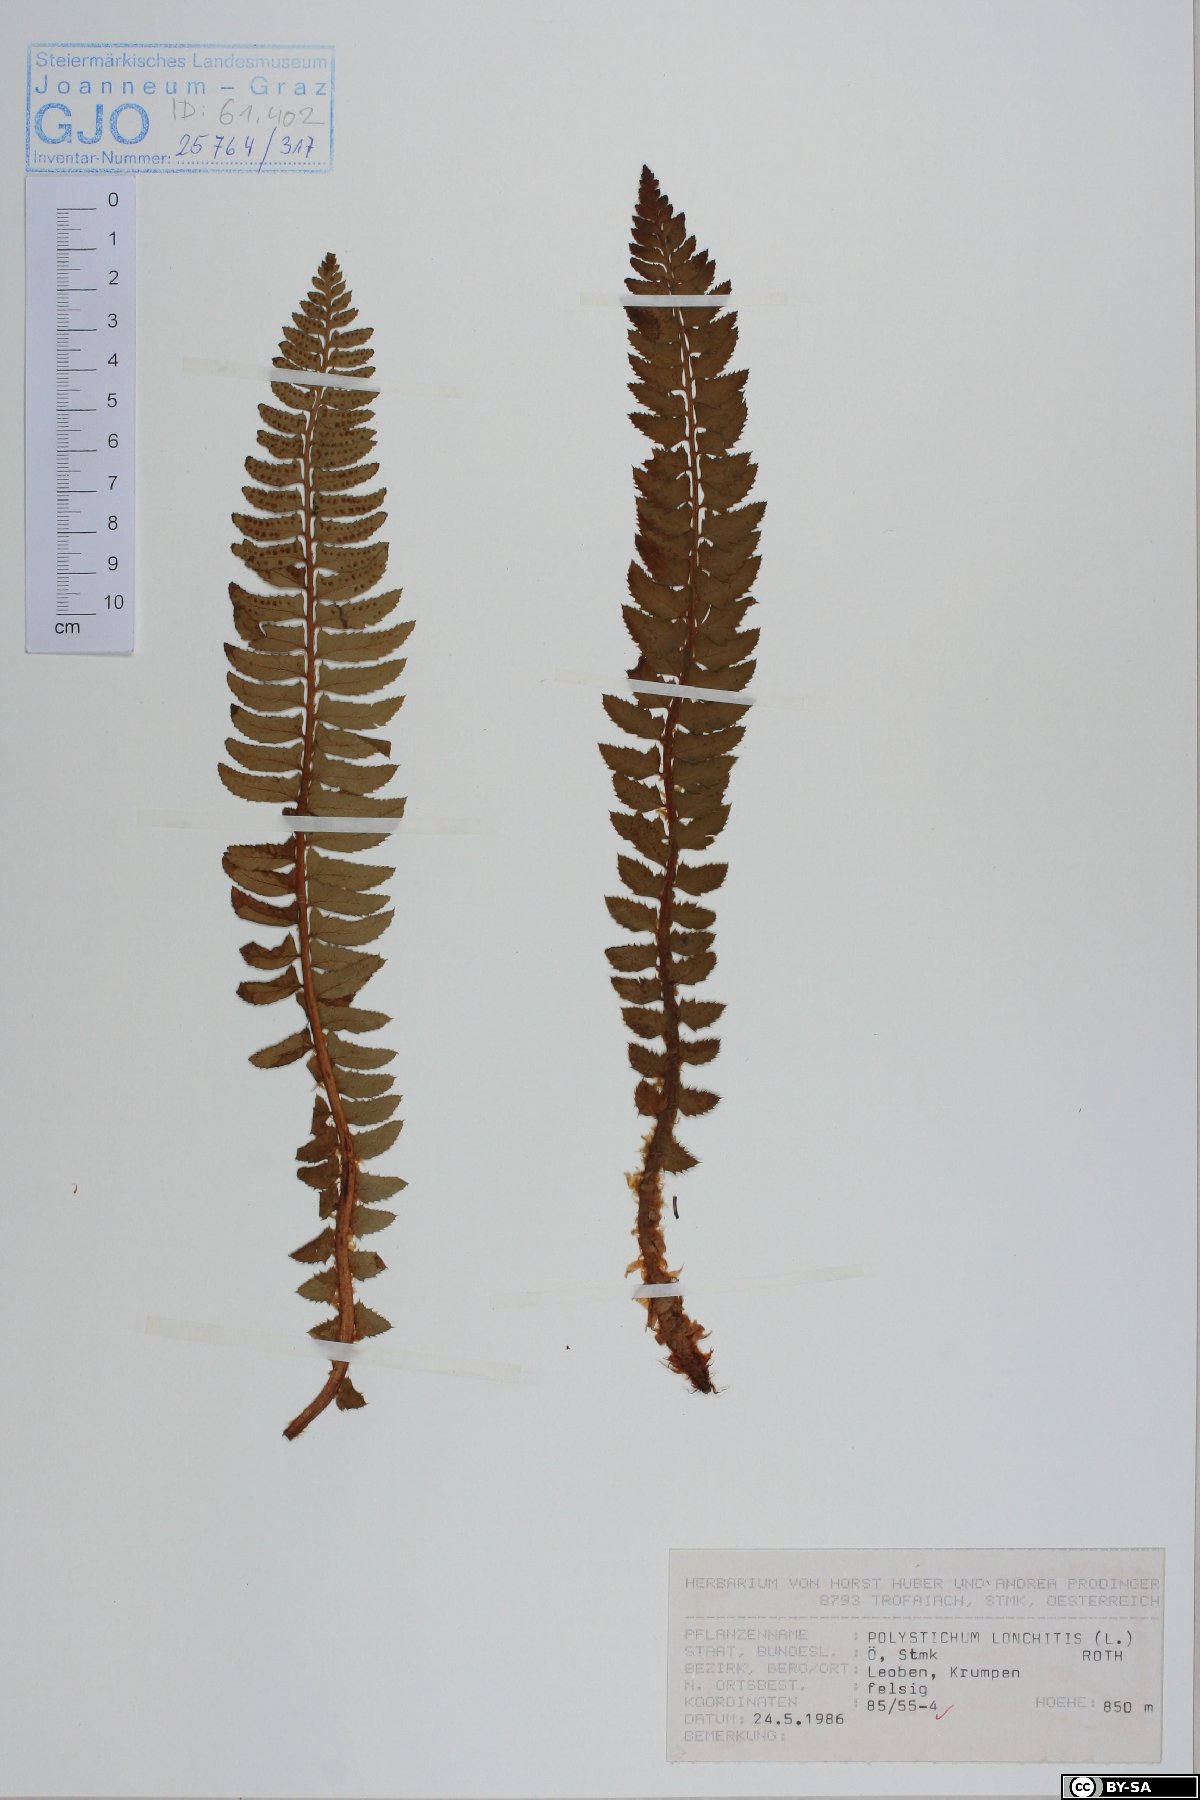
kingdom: Plantae
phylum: Tracheophyta
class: Polypodiopsida
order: Polypodiales
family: Dryopteridaceae
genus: Polystichum
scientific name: Polystichum lonchitis
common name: Holly fern
